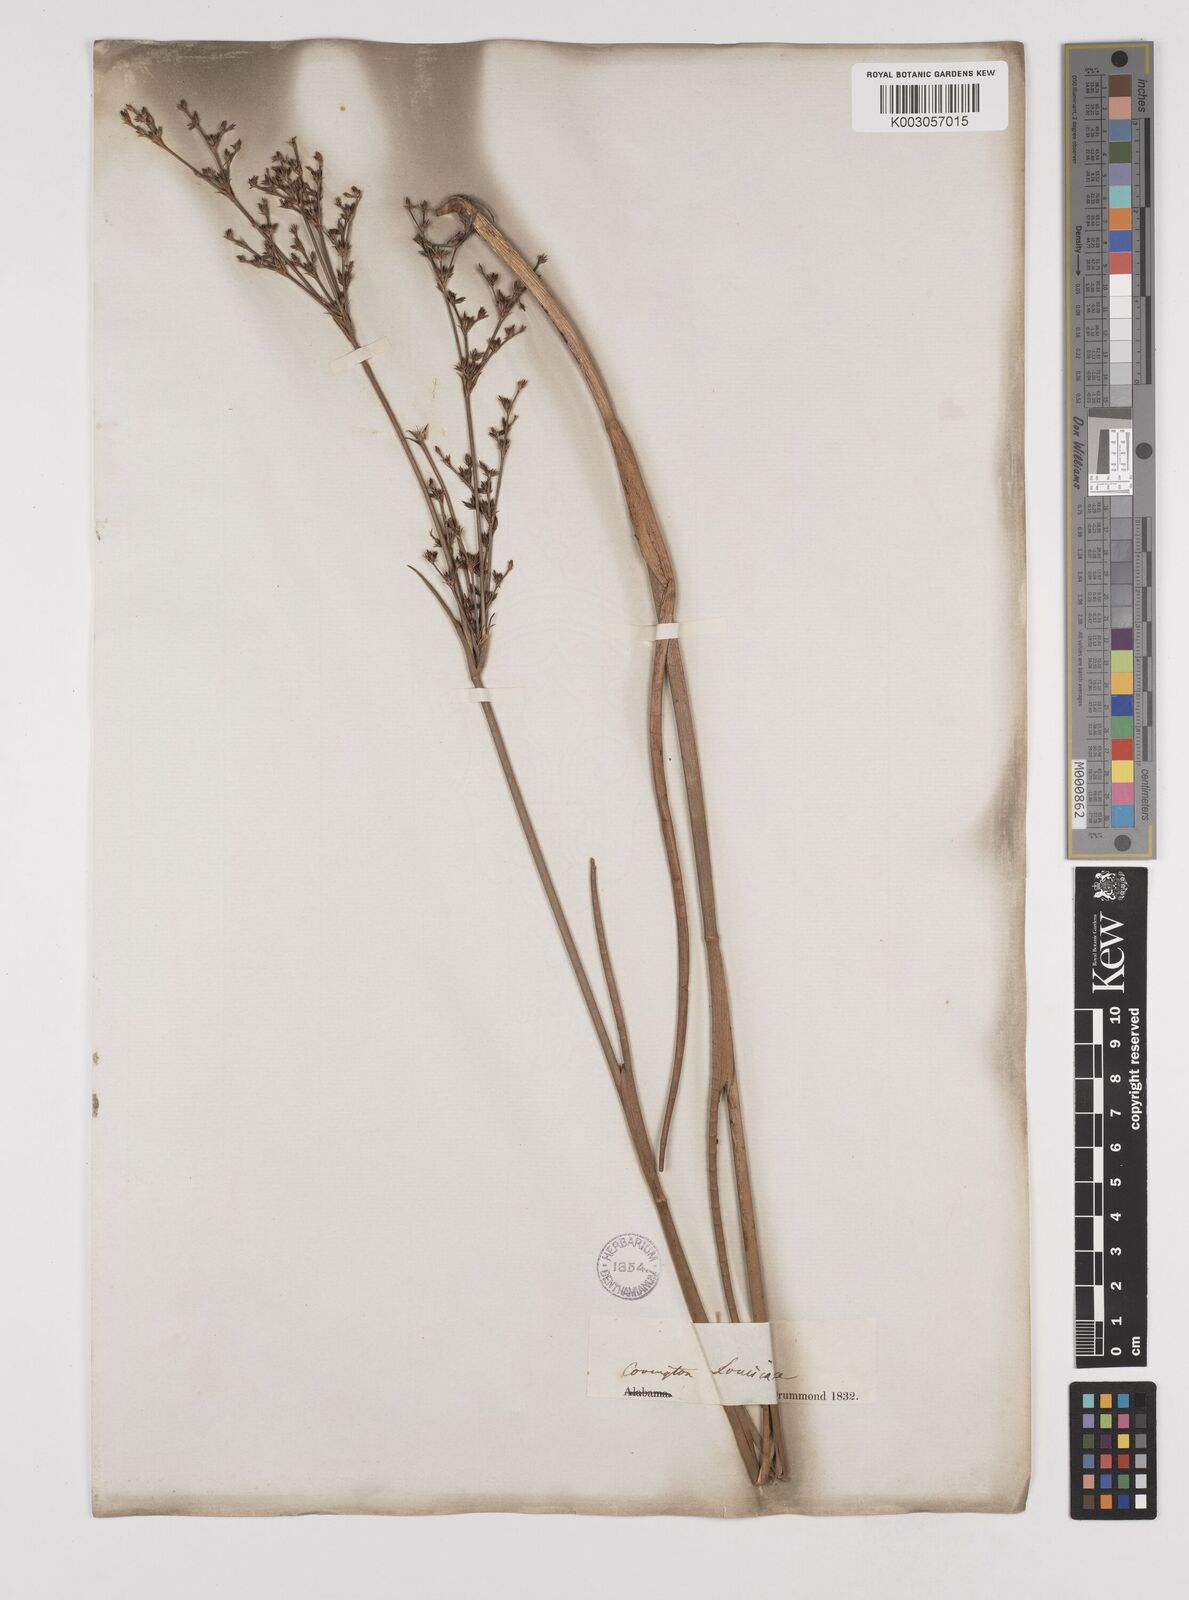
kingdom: Plantae
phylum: Tracheophyta
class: Liliopsida
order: Poales
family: Juncaceae
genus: Juncus
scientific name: Juncus trigonocarpus
